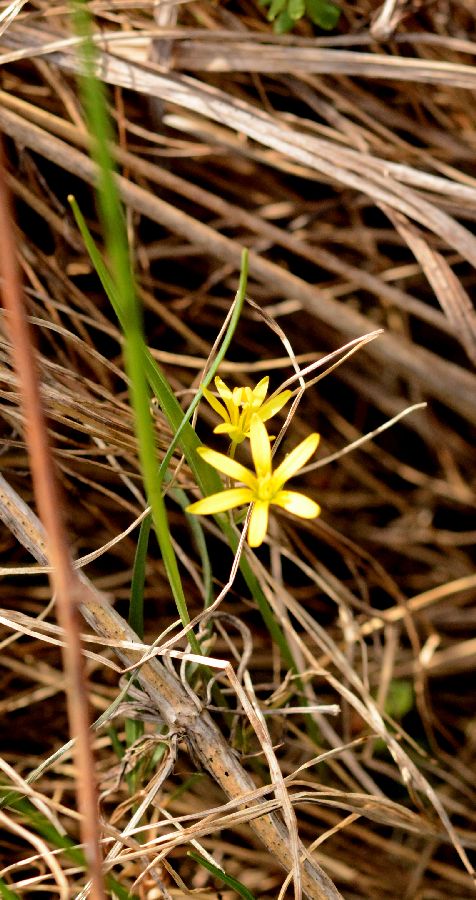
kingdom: Plantae
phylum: Tracheophyta
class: Liliopsida
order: Liliales
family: Liliaceae
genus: Gagea
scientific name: Gagea fragifera
